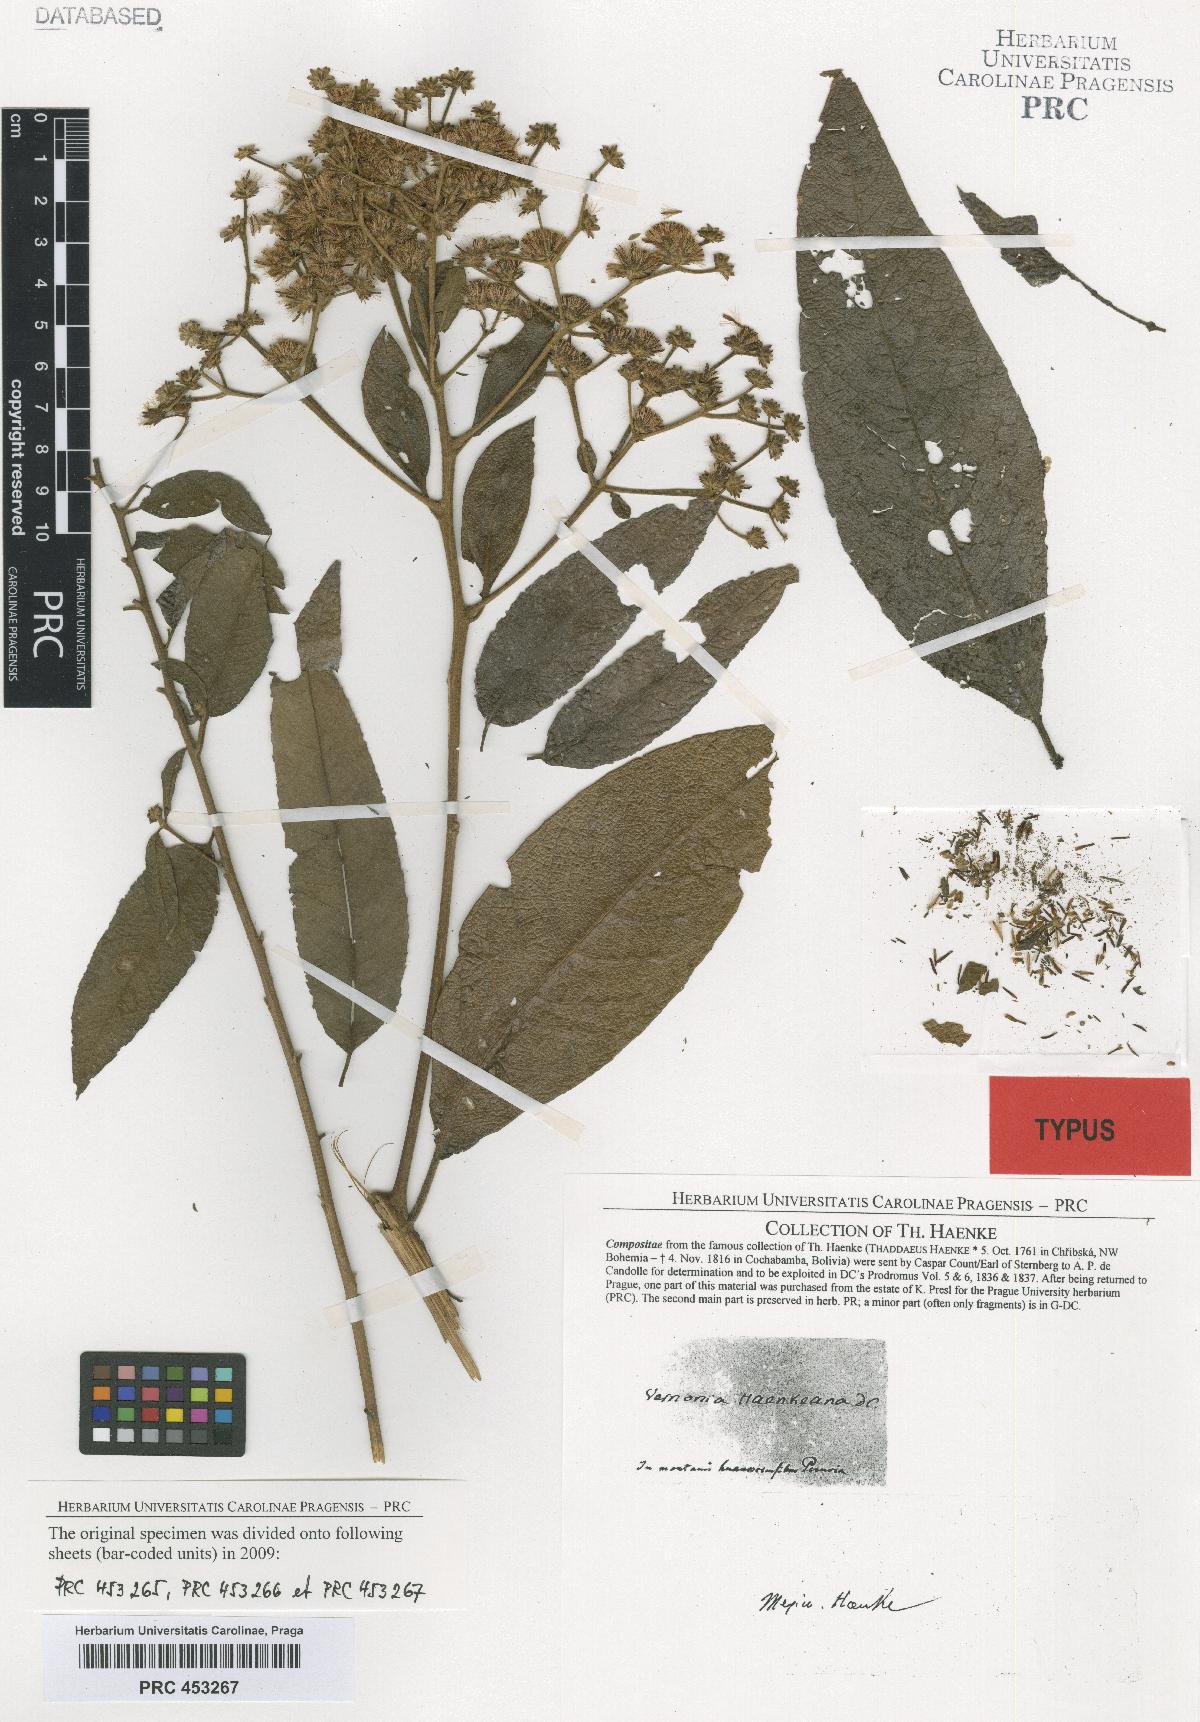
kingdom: Plantae
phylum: Tracheophyta
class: Magnoliopsida
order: Asterales
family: Asteraceae
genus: Vernonanthura
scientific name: Vernonanthura patens
